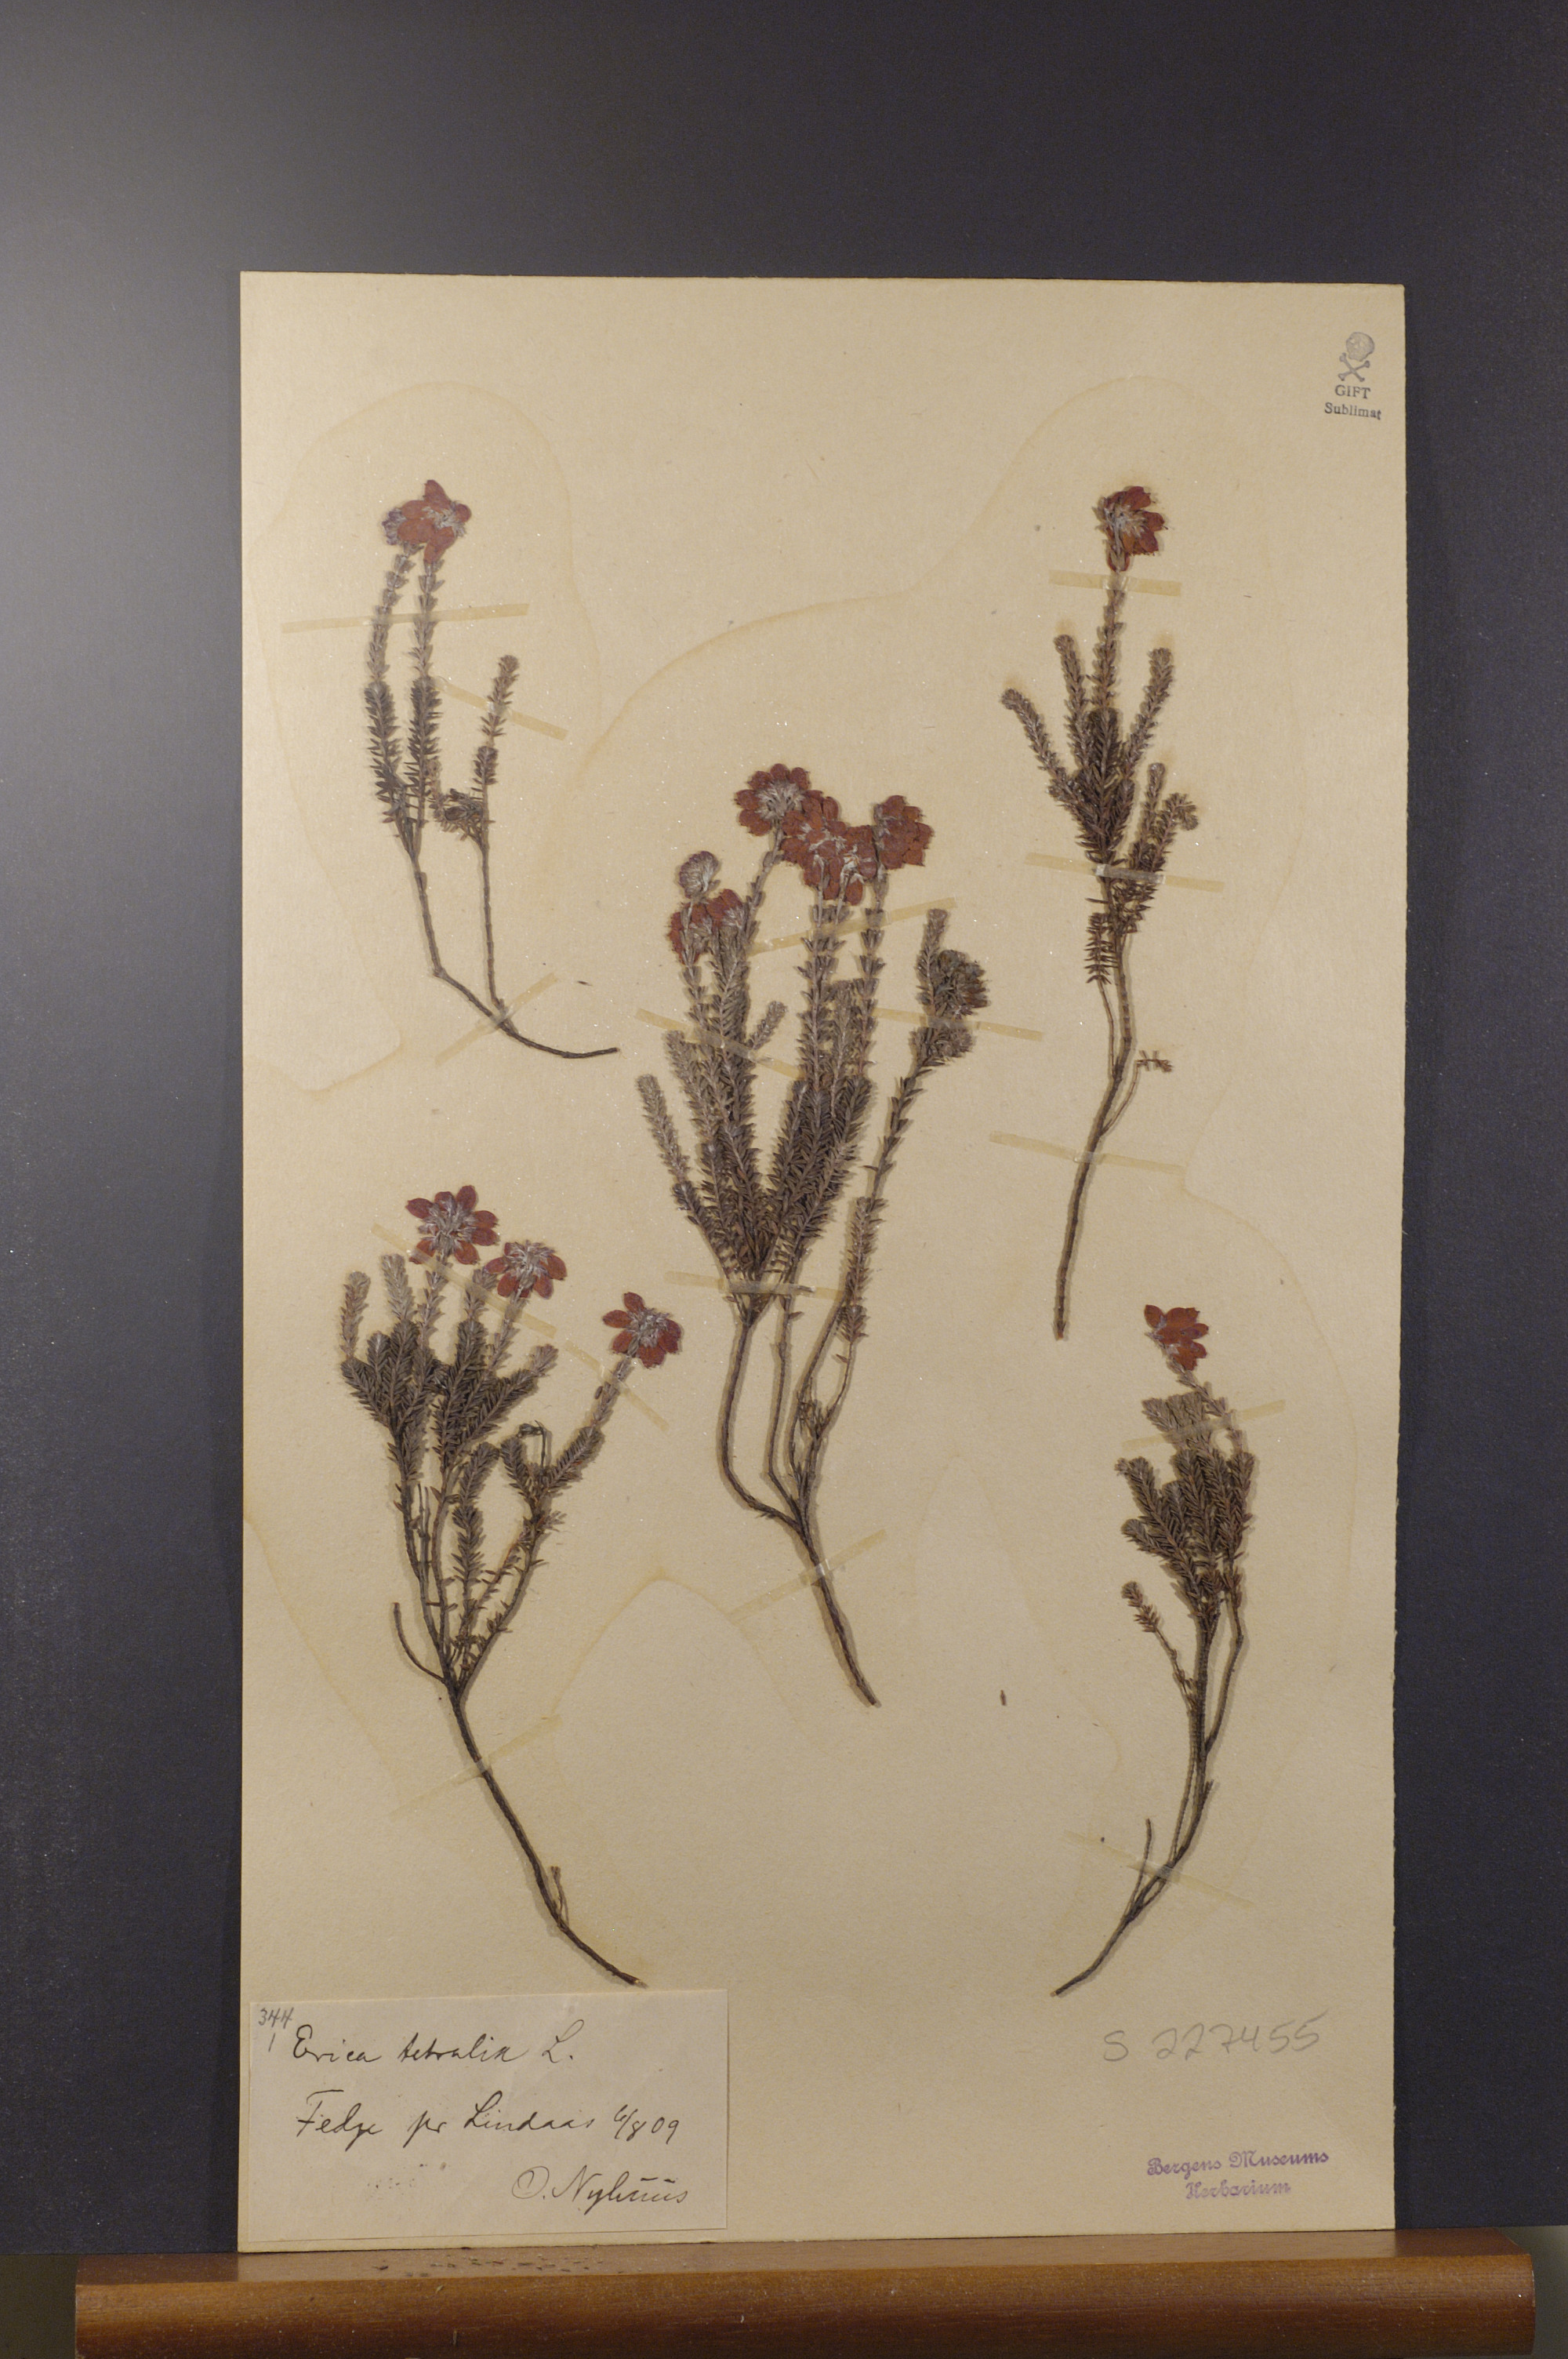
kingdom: Plantae
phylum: Tracheophyta
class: Magnoliopsida
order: Ericales
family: Ericaceae
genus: Erica
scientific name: Erica tetralix
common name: Cross-leaved heath
